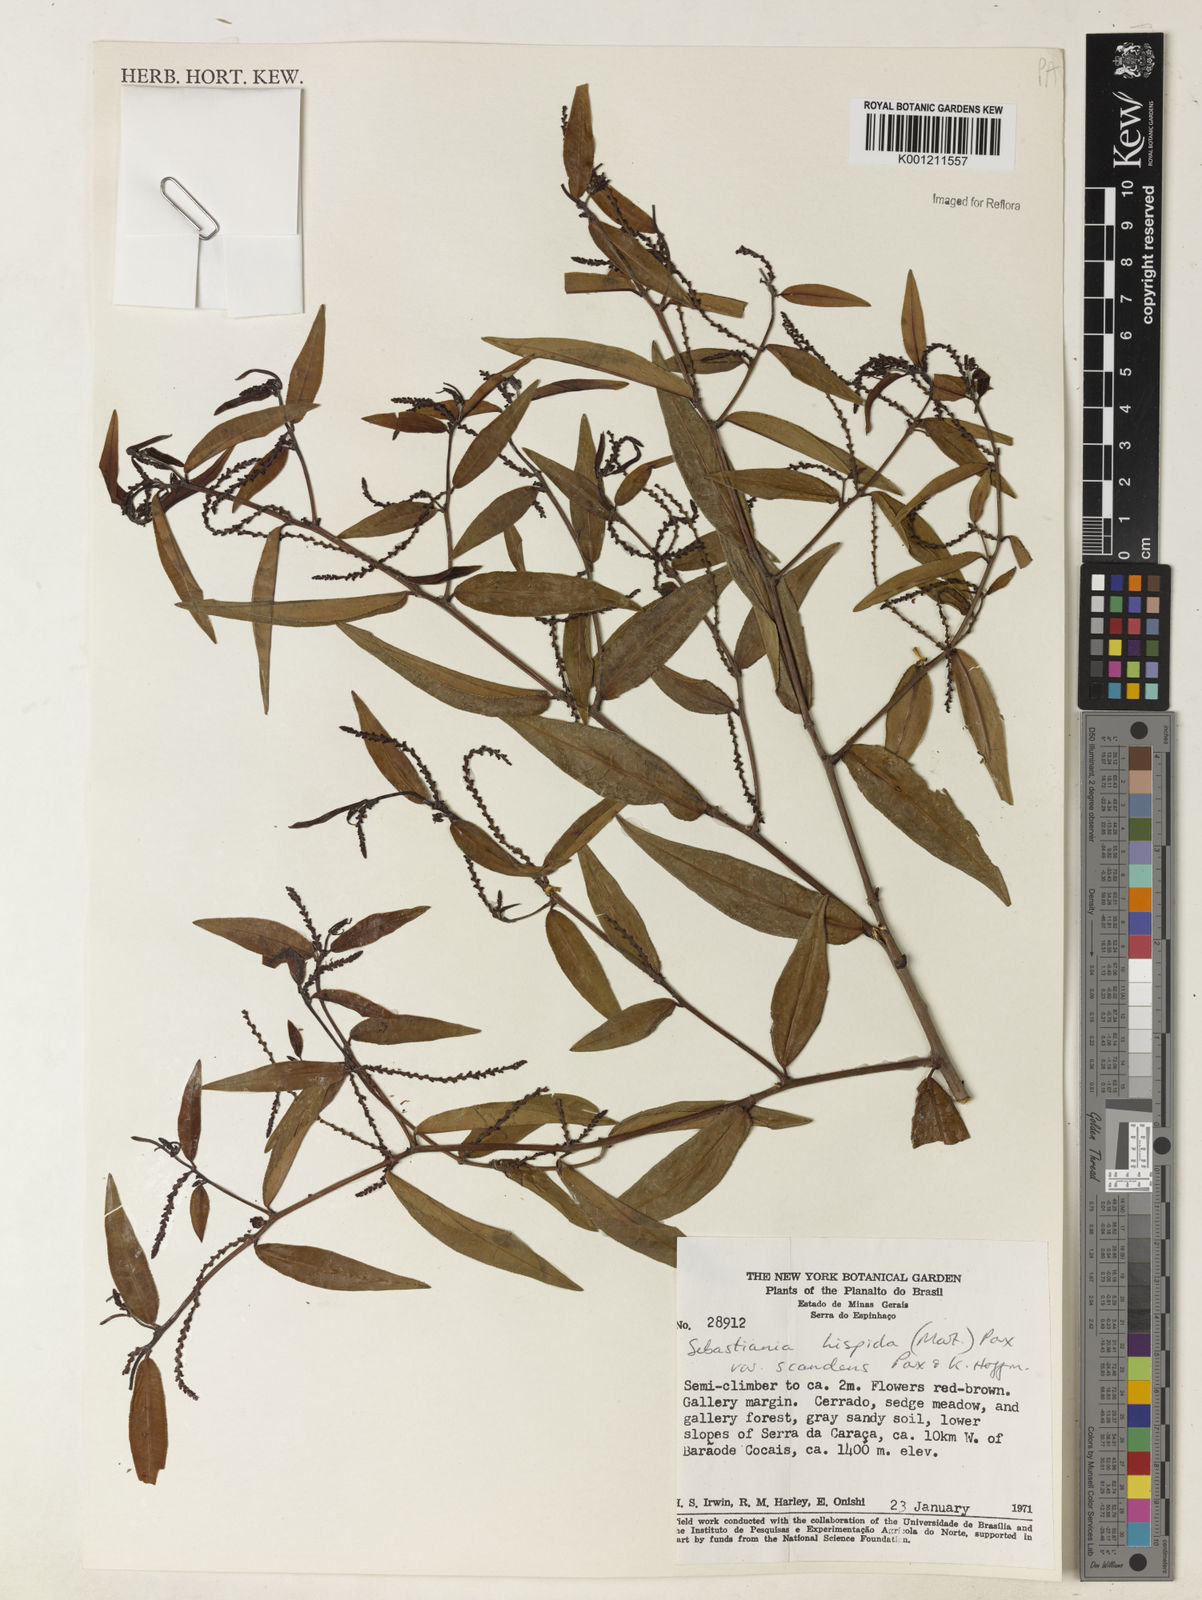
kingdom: Plantae
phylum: Tracheophyta
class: Magnoliopsida
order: Malpighiales
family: Euphorbiaceae
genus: Microstachys
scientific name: Microstachys hispida
